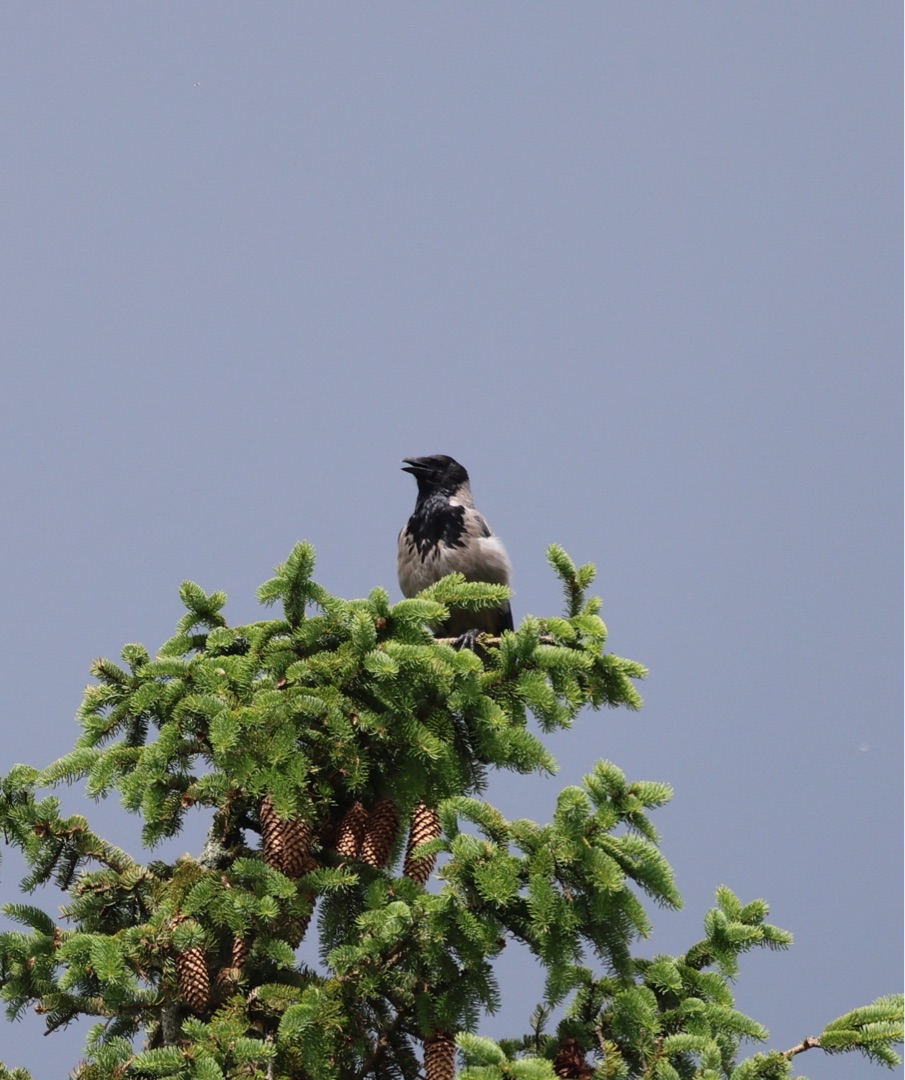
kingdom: Animalia
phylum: Chordata
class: Aves
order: Passeriformes
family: Corvidae
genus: Corvus
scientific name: Corvus cornix
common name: Gråkrage
